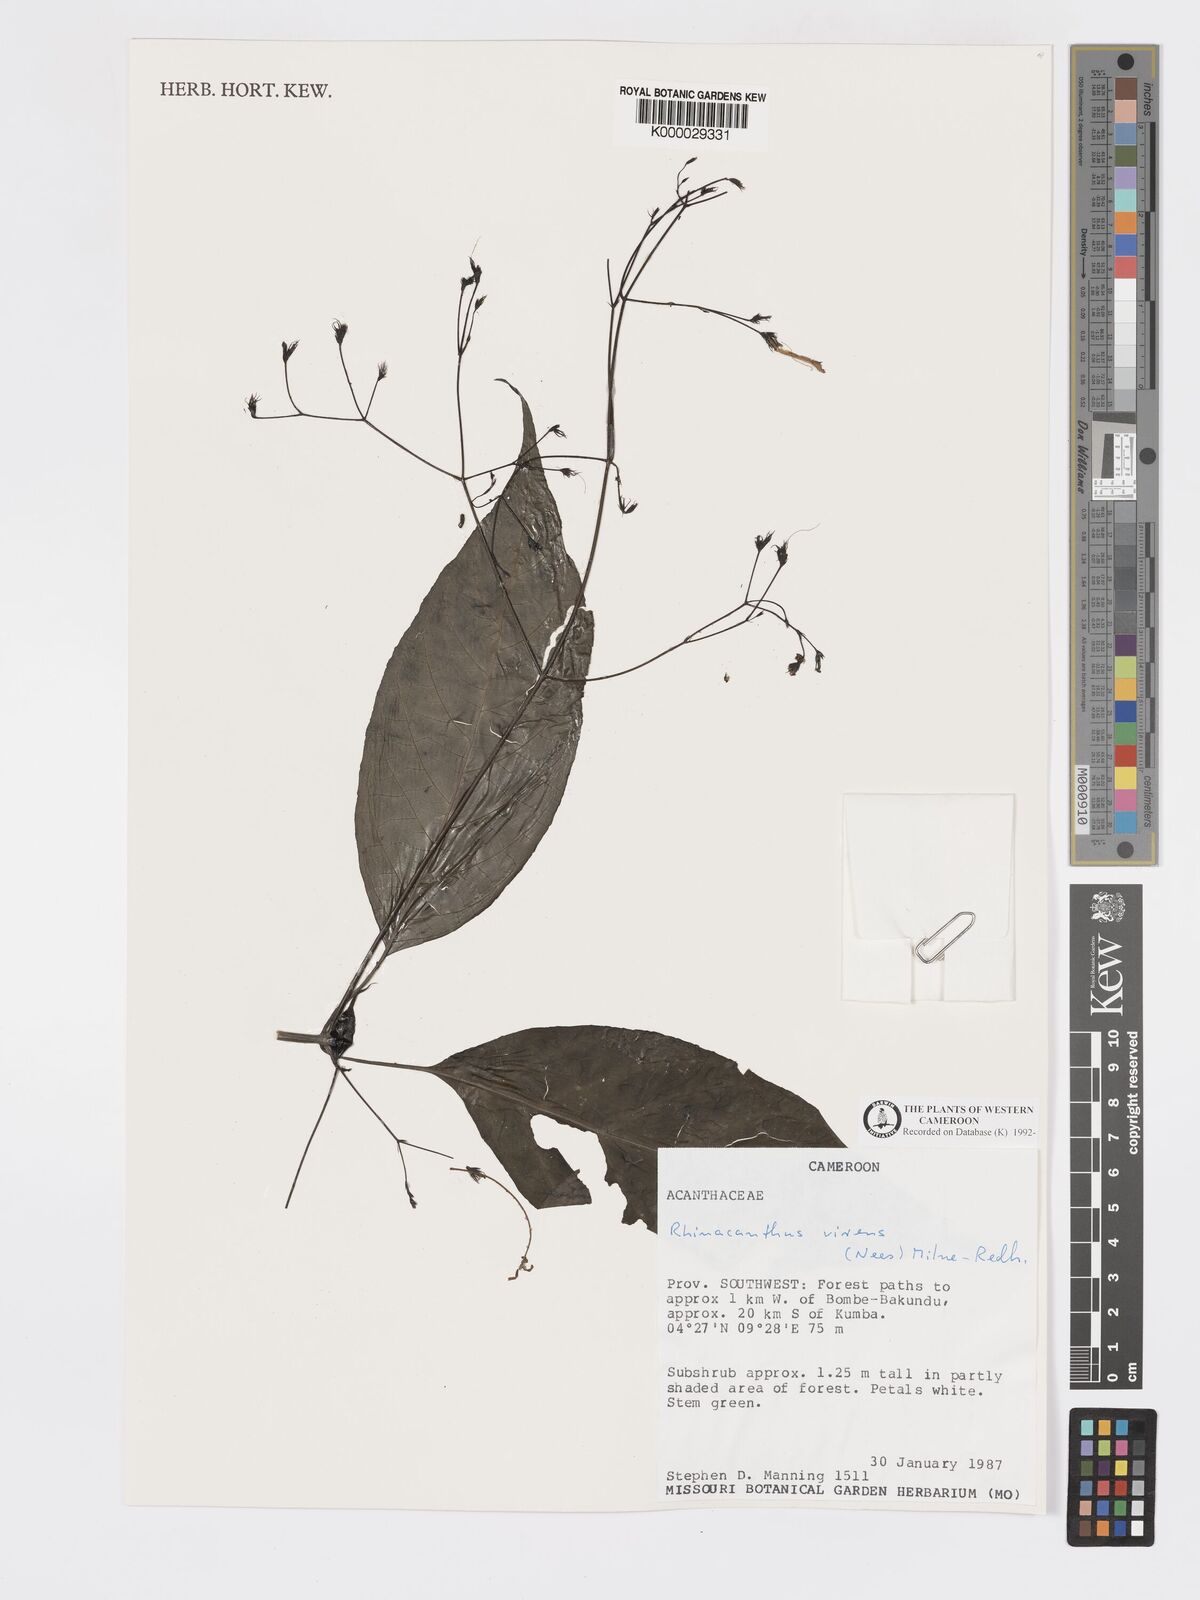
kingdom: Plantae
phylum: Tracheophyta
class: Magnoliopsida
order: Lamiales
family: Acanthaceae
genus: Rhinacanthus
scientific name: Rhinacanthus virens
